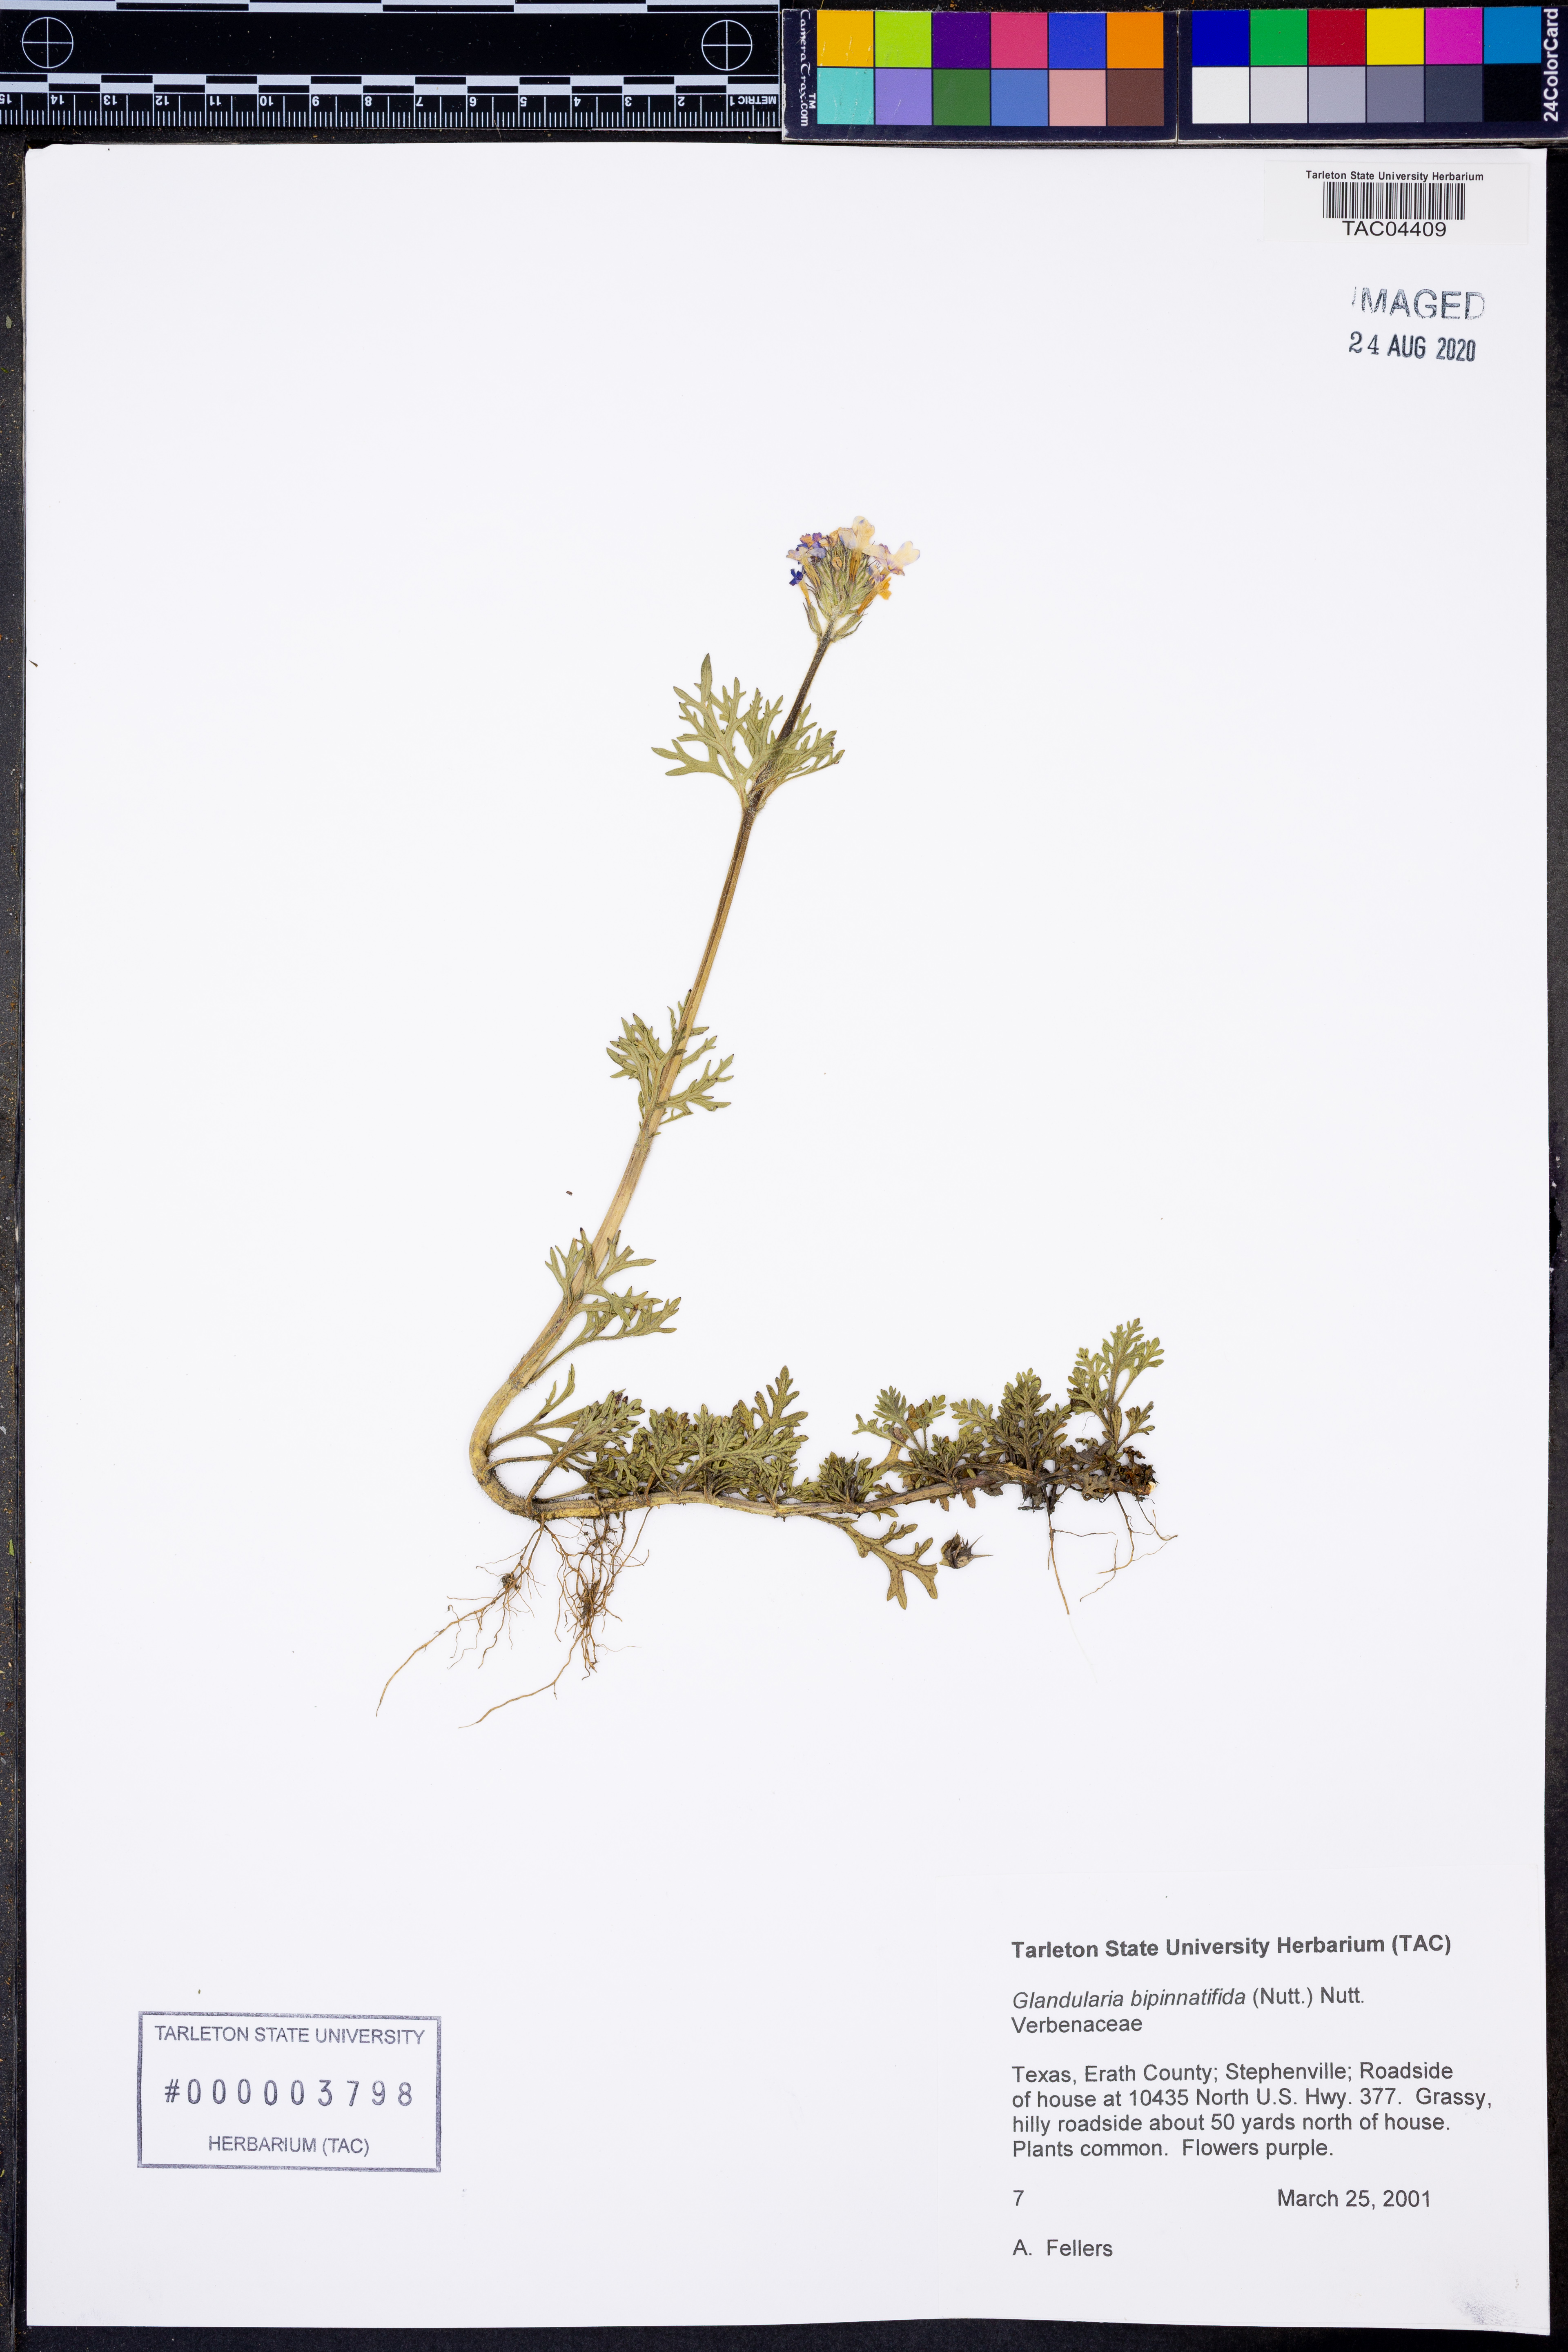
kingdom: Plantae
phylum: Tracheophyta
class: Magnoliopsida
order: Lamiales
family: Verbenaceae
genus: Verbena
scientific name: Verbena bipinnatifida
